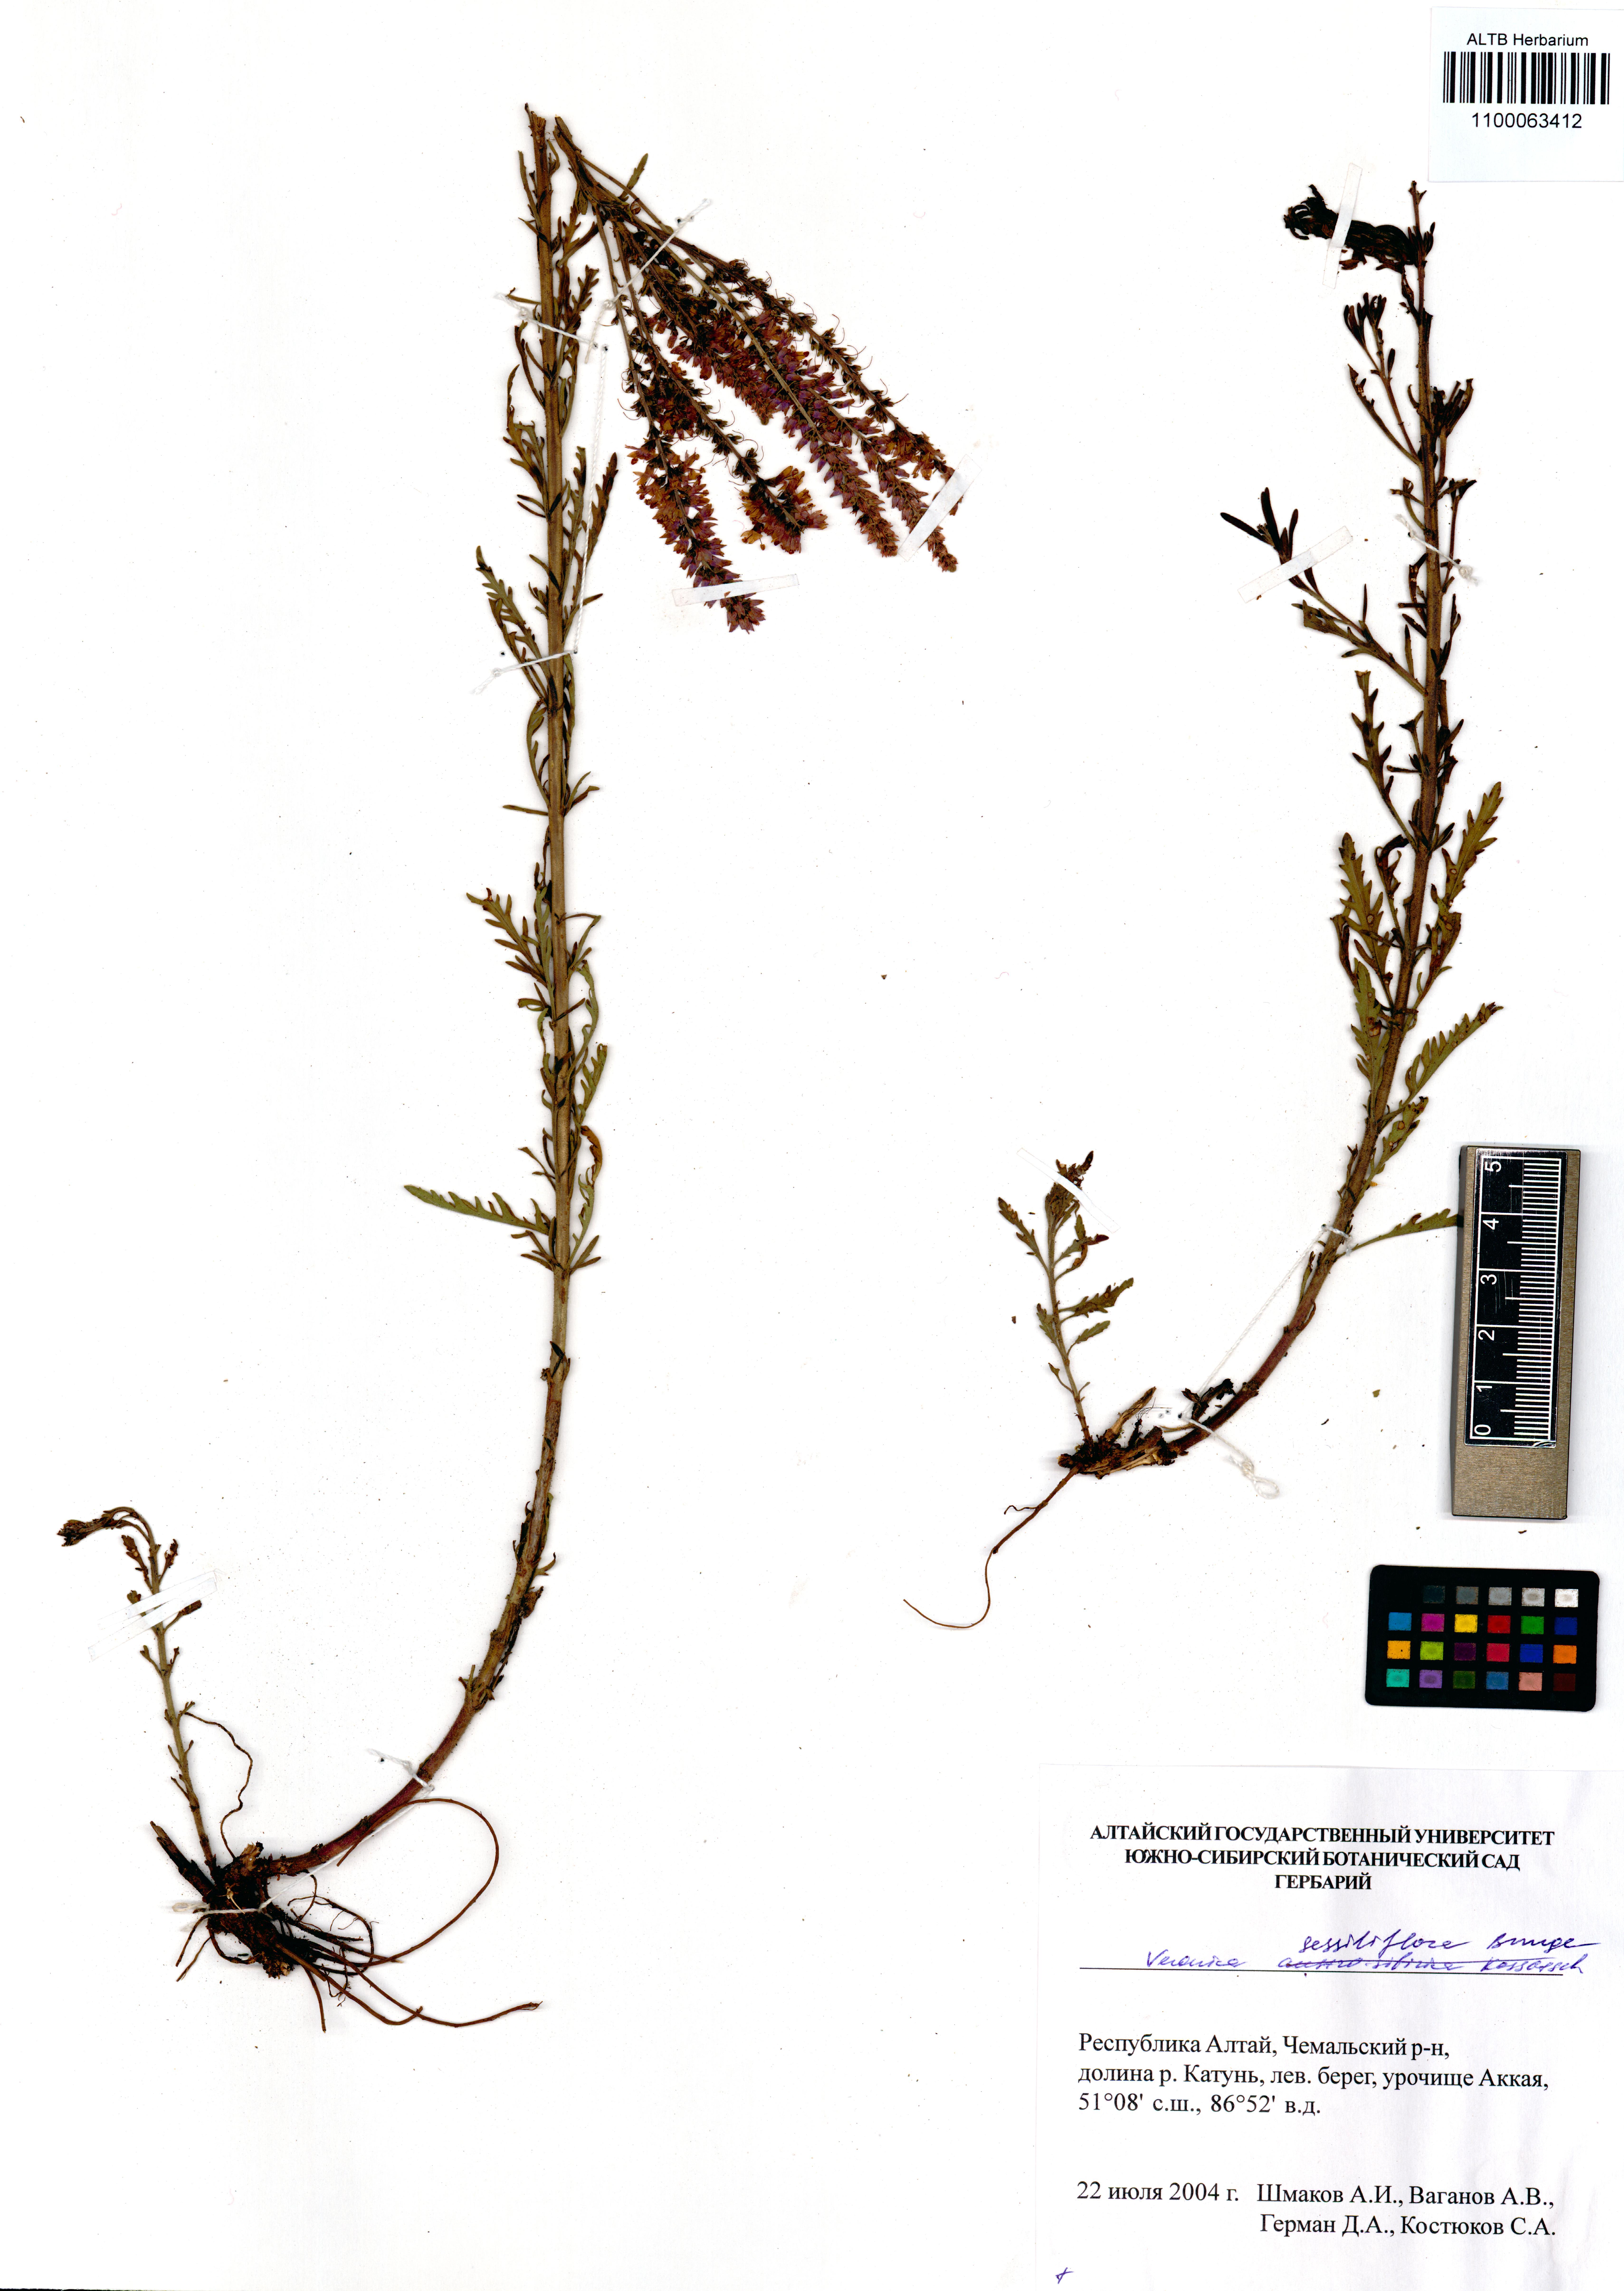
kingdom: Plantae
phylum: Tracheophyta
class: Magnoliopsida
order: Lamiales
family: Plantaginaceae
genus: Veronica
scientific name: Veronica sessiliflora
